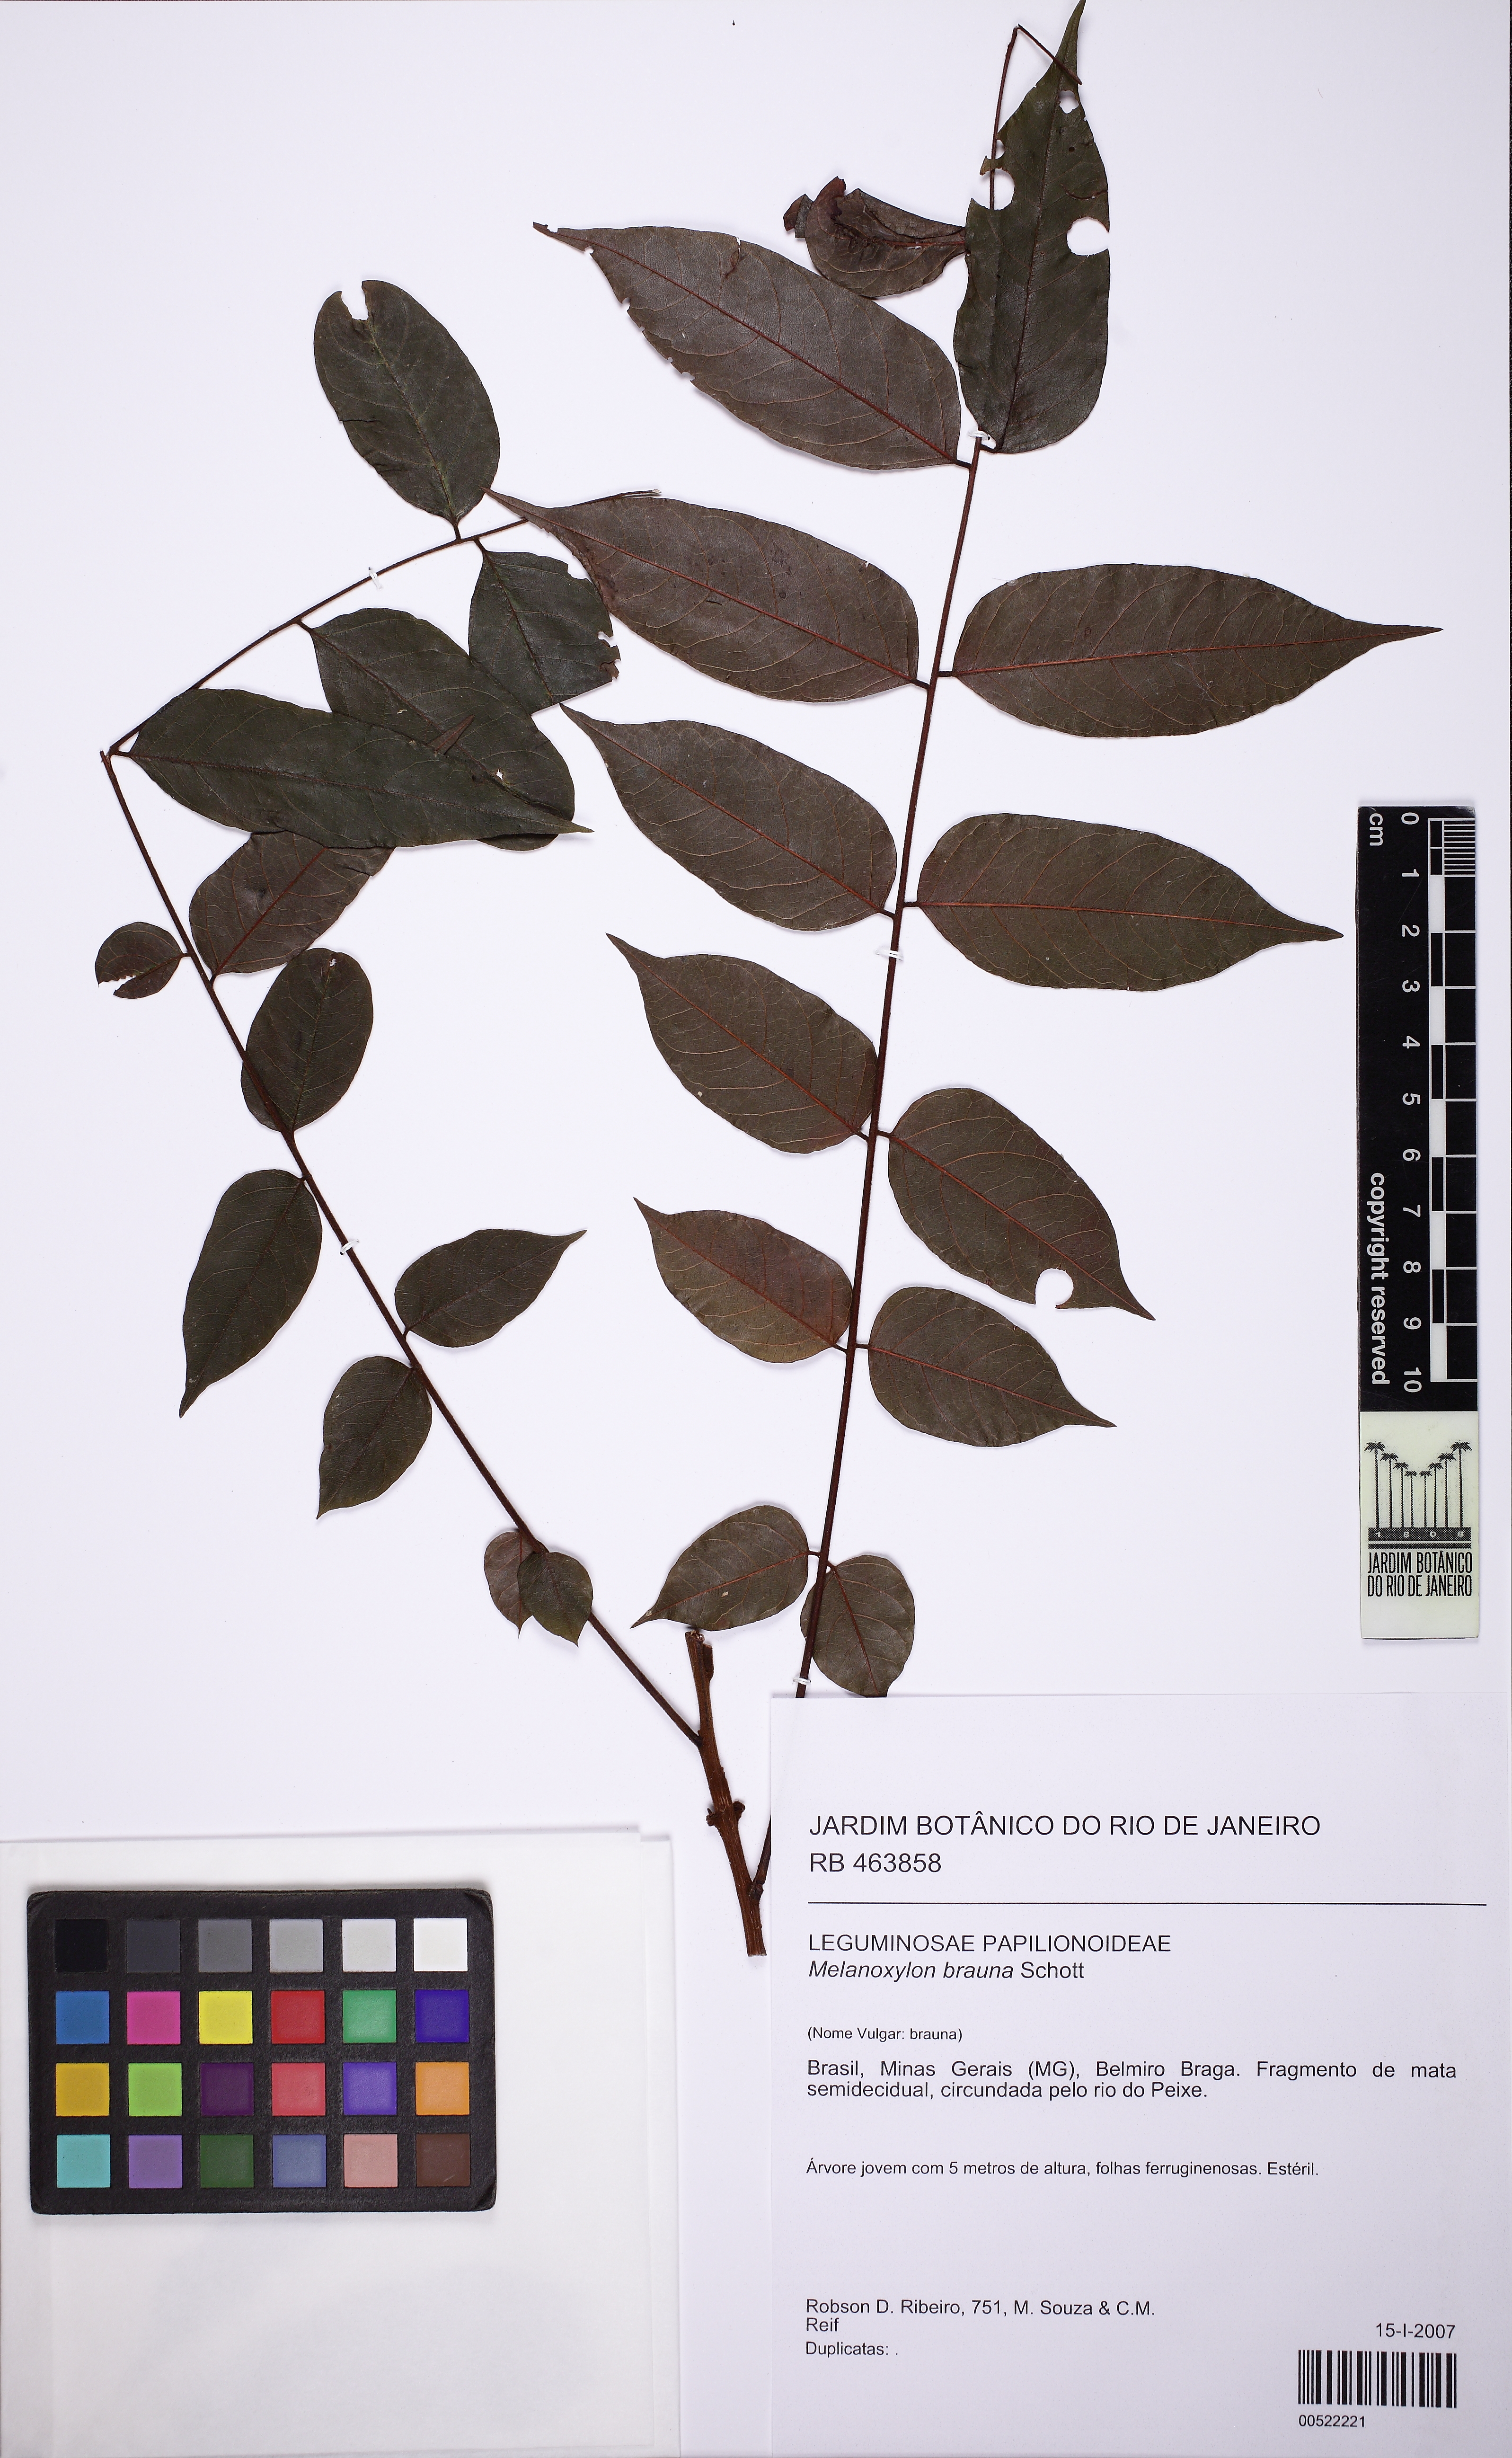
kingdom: Plantae
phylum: Tracheophyta
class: Magnoliopsida
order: Fabales
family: Fabaceae
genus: Melanoxylon
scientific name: Melanoxylon brauna
